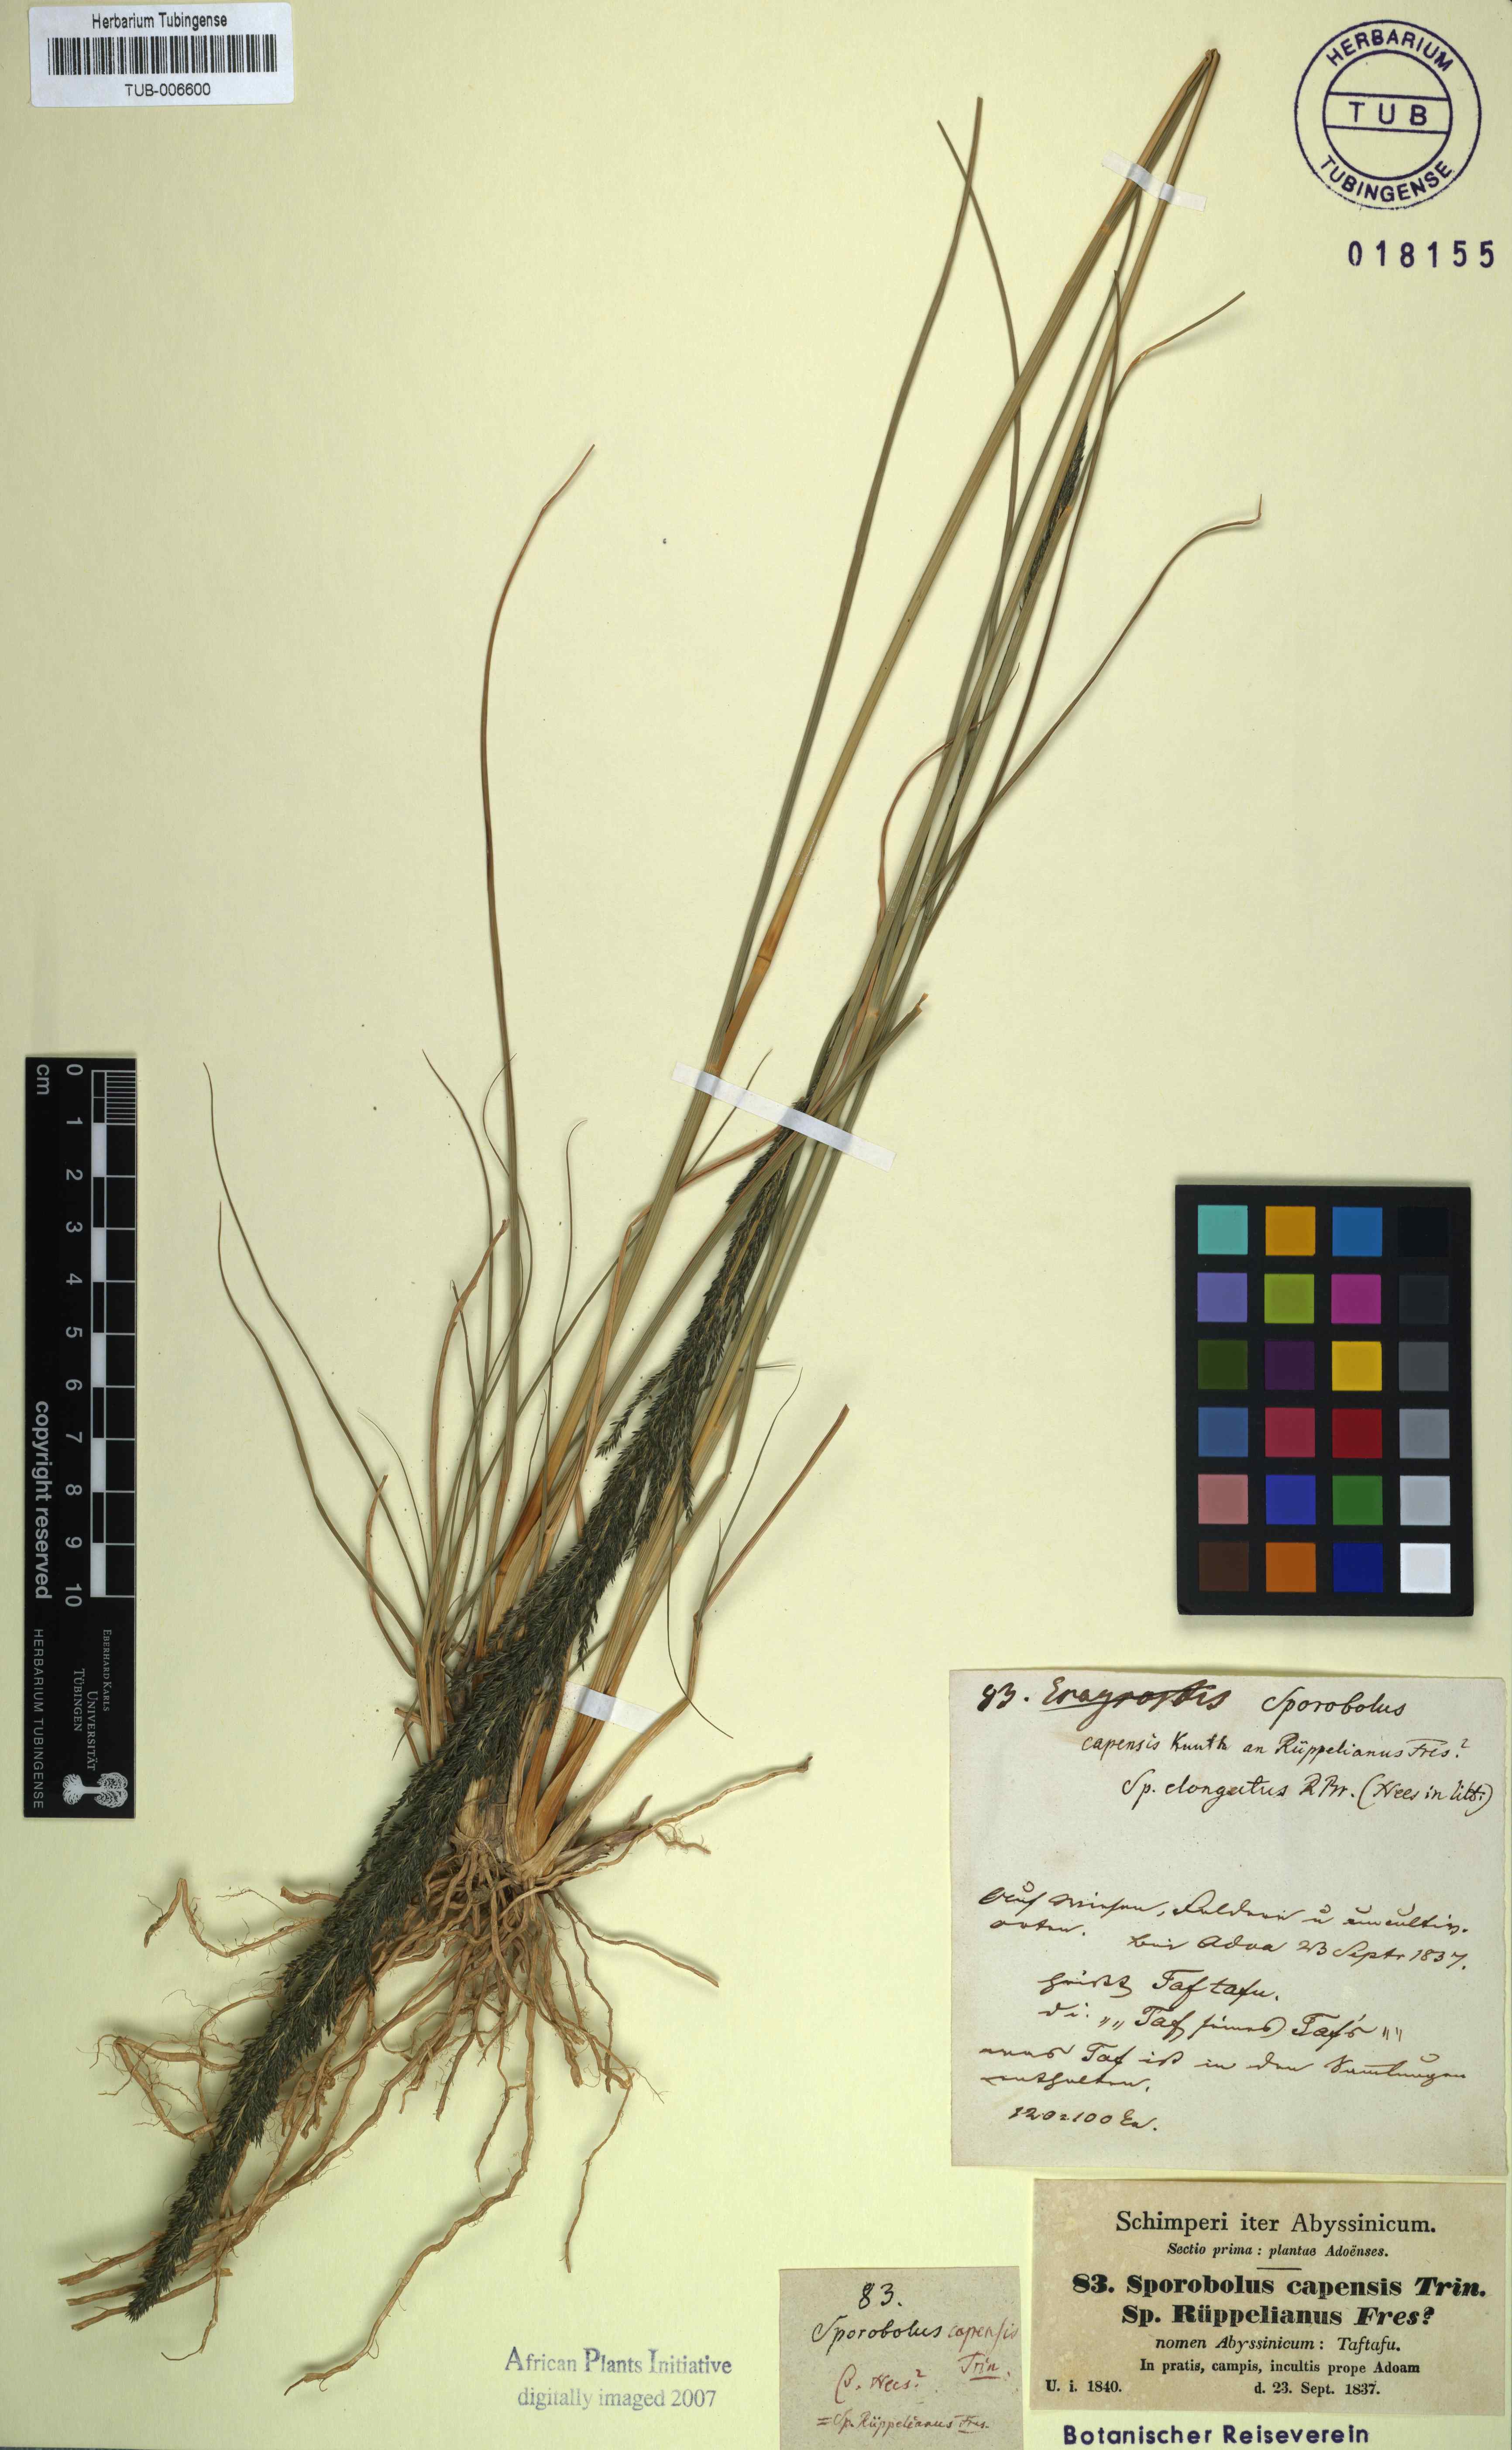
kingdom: Plantae
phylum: Tracheophyta
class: Liliopsida
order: Poales
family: Poaceae
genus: Sporobolus
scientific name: Sporobolus africanus
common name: African dropseed
